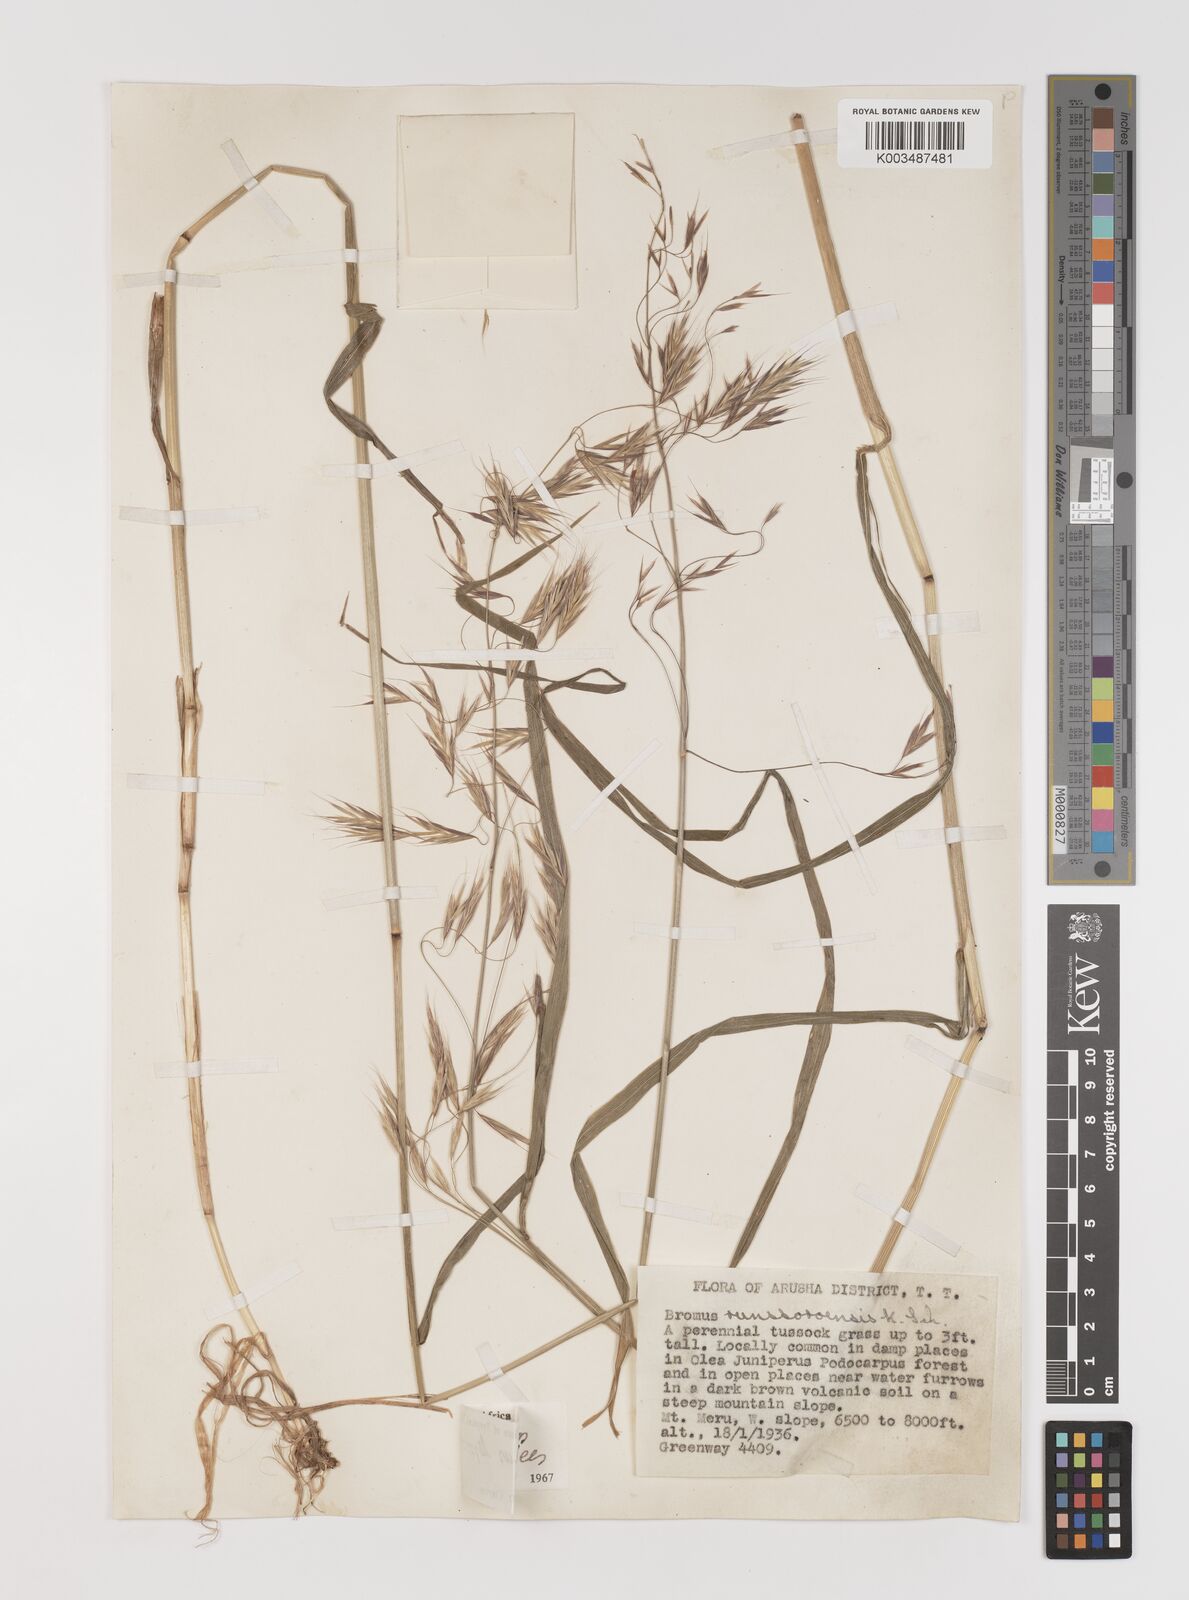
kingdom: Plantae
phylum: Tracheophyta
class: Liliopsida
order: Poales
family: Poaceae
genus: Bromus
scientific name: Bromus leptoclados
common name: Mountain bromegrass
